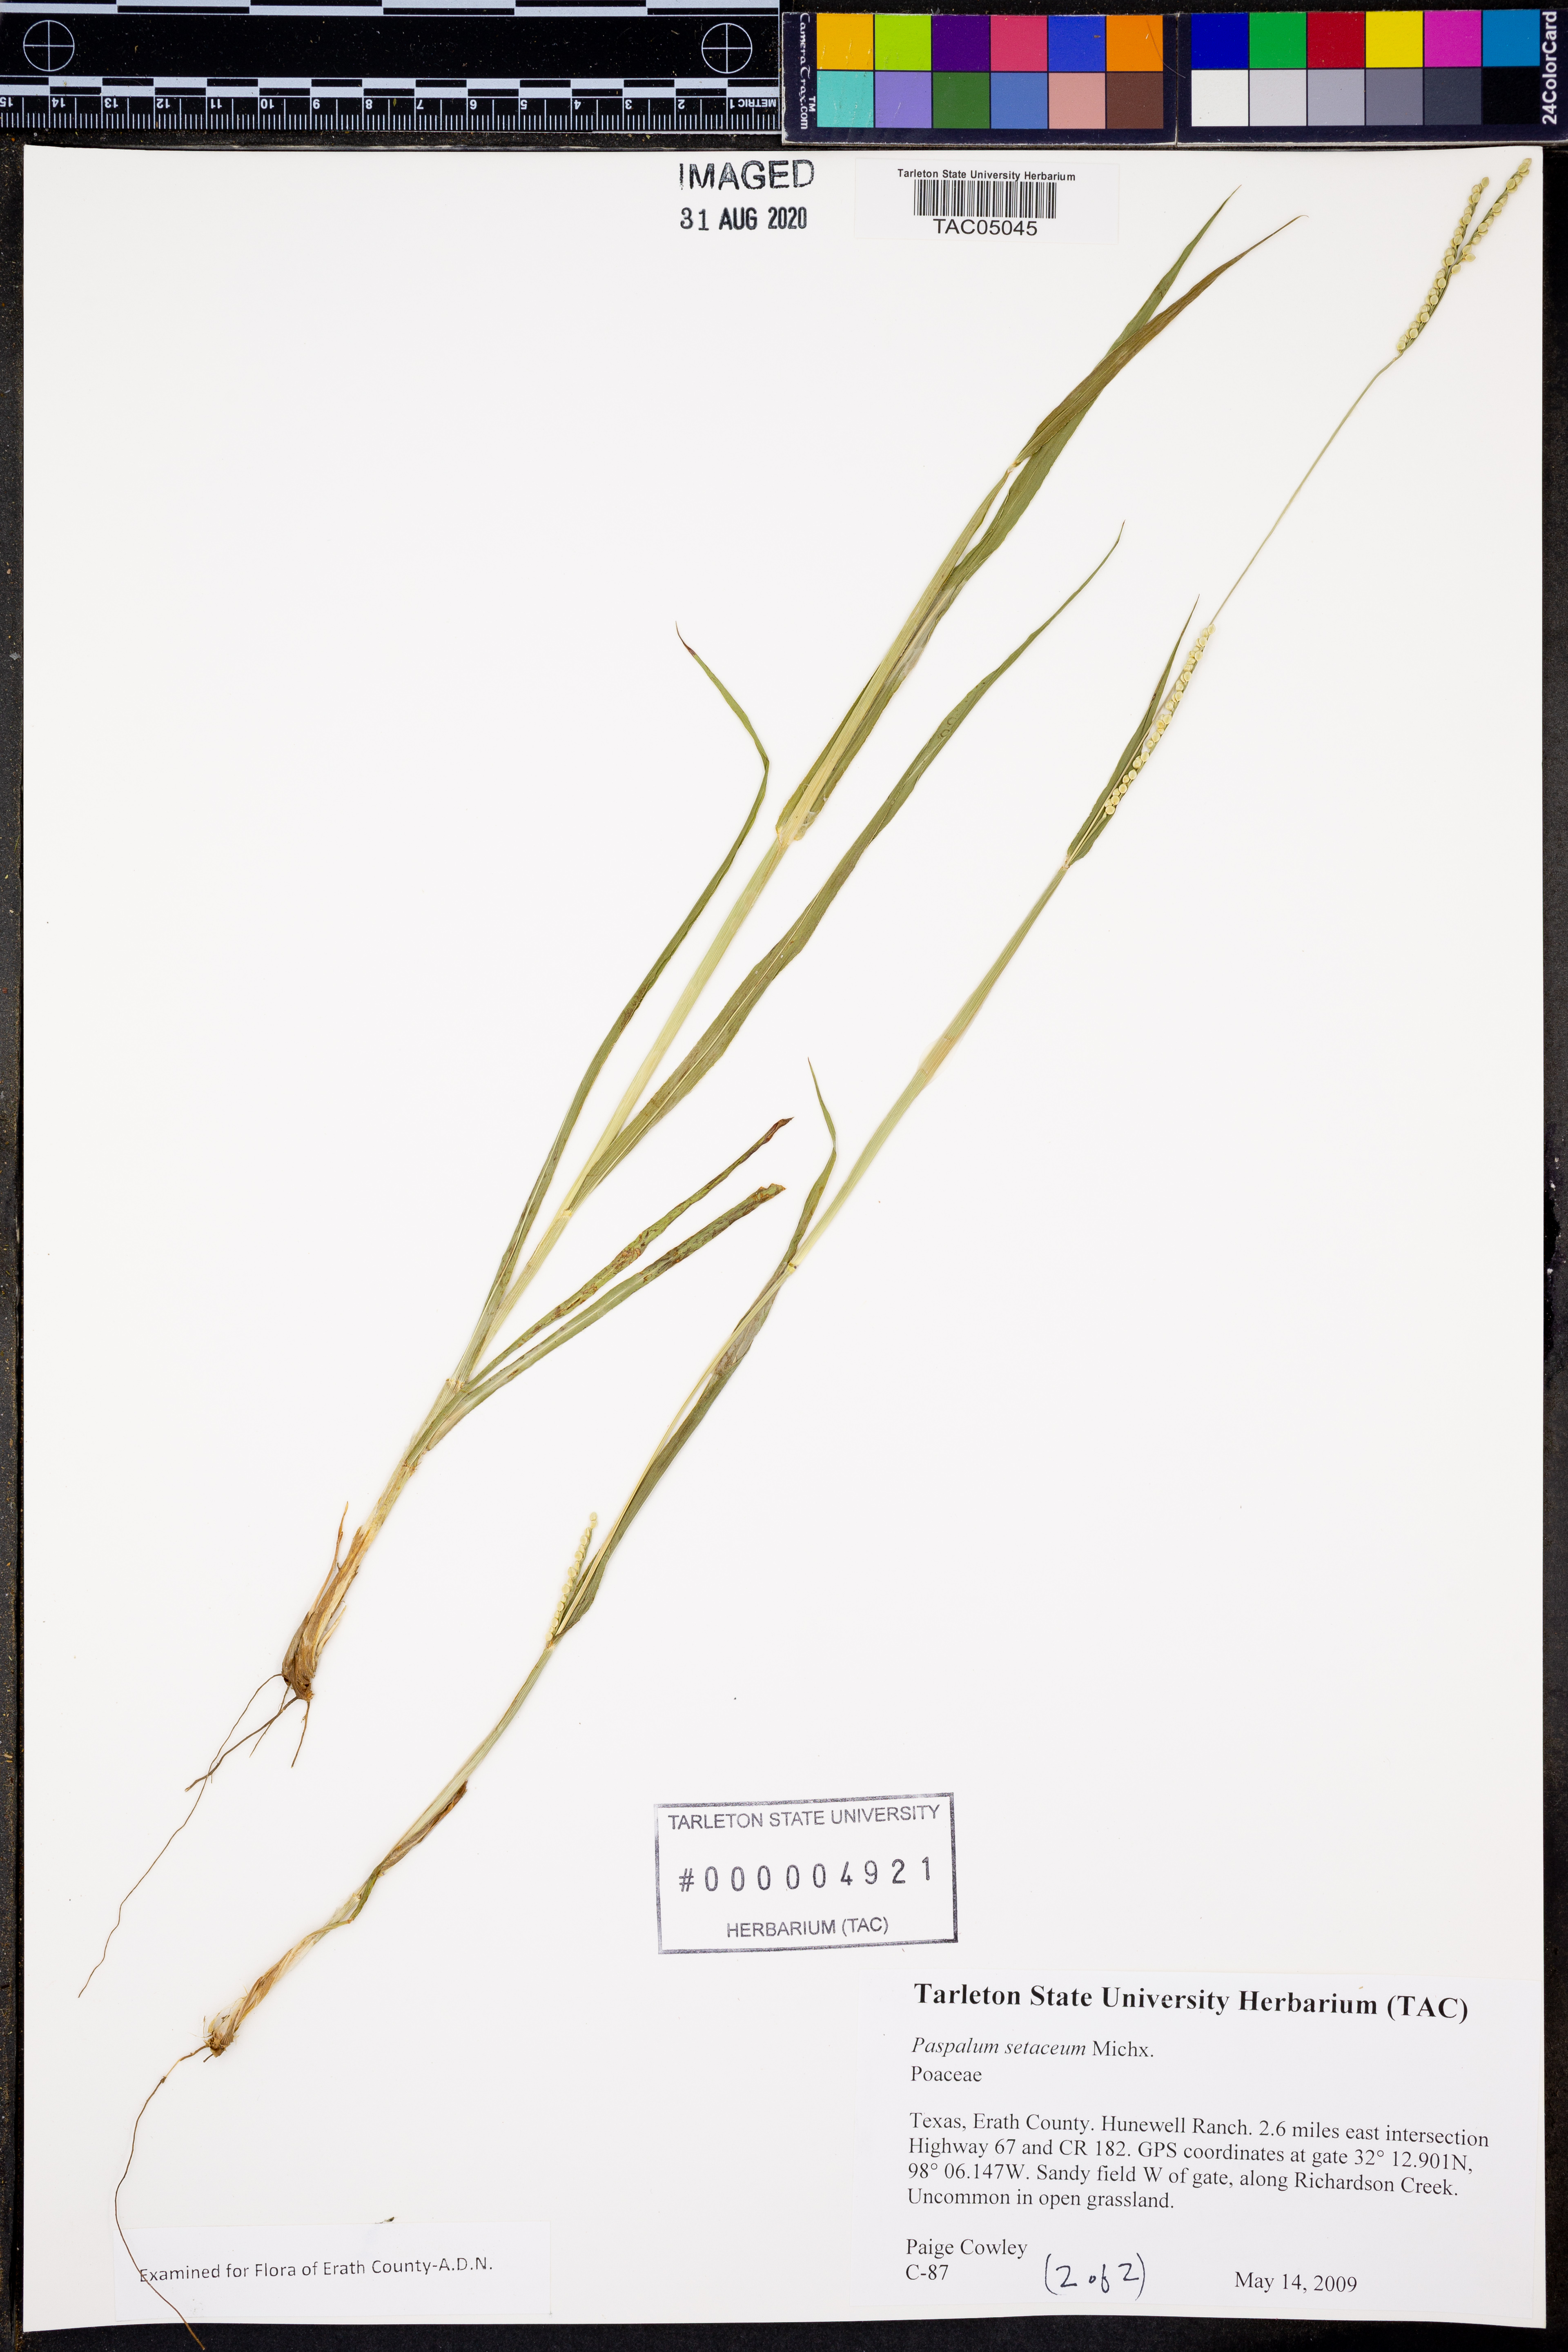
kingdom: Plantae
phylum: Tracheophyta
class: Liliopsida
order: Poales
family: Poaceae
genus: Paspalum
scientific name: Paspalum setaceum
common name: Slender paspalum
